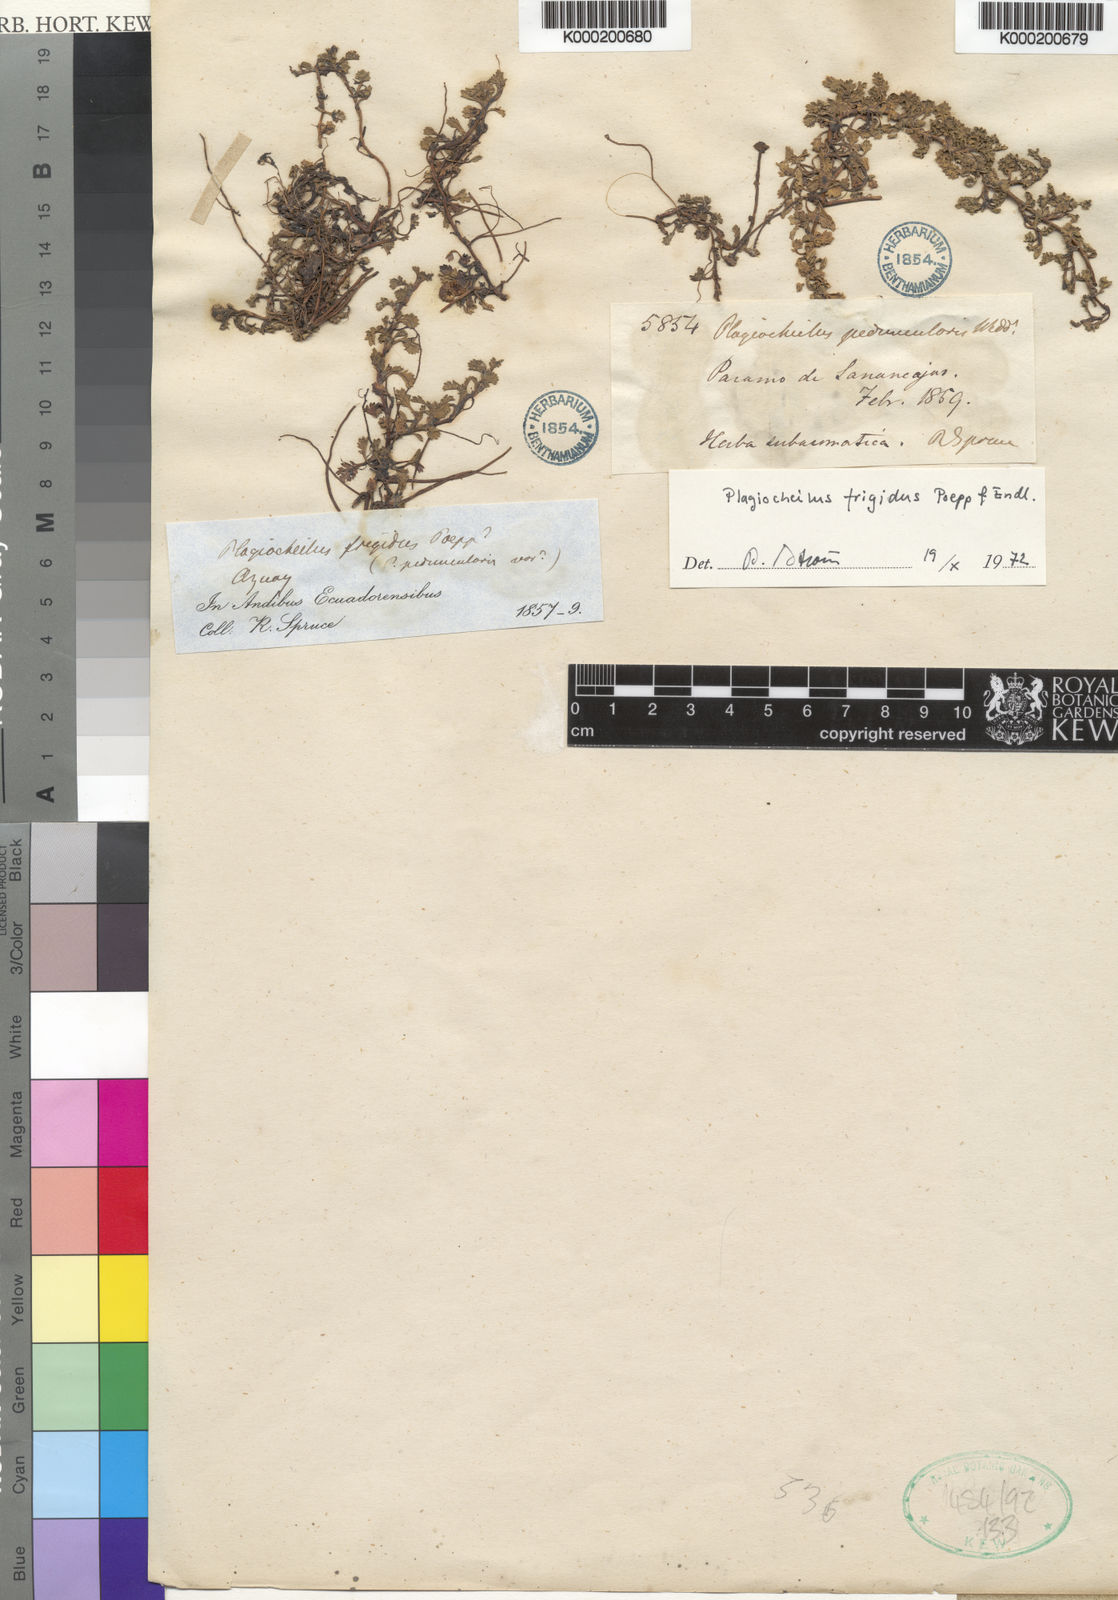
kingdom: Plantae
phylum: Tracheophyta
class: Magnoliopsida
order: Asterales
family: Asteraceae
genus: Plagiocheilus
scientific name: Plagiocheilus frigidus
